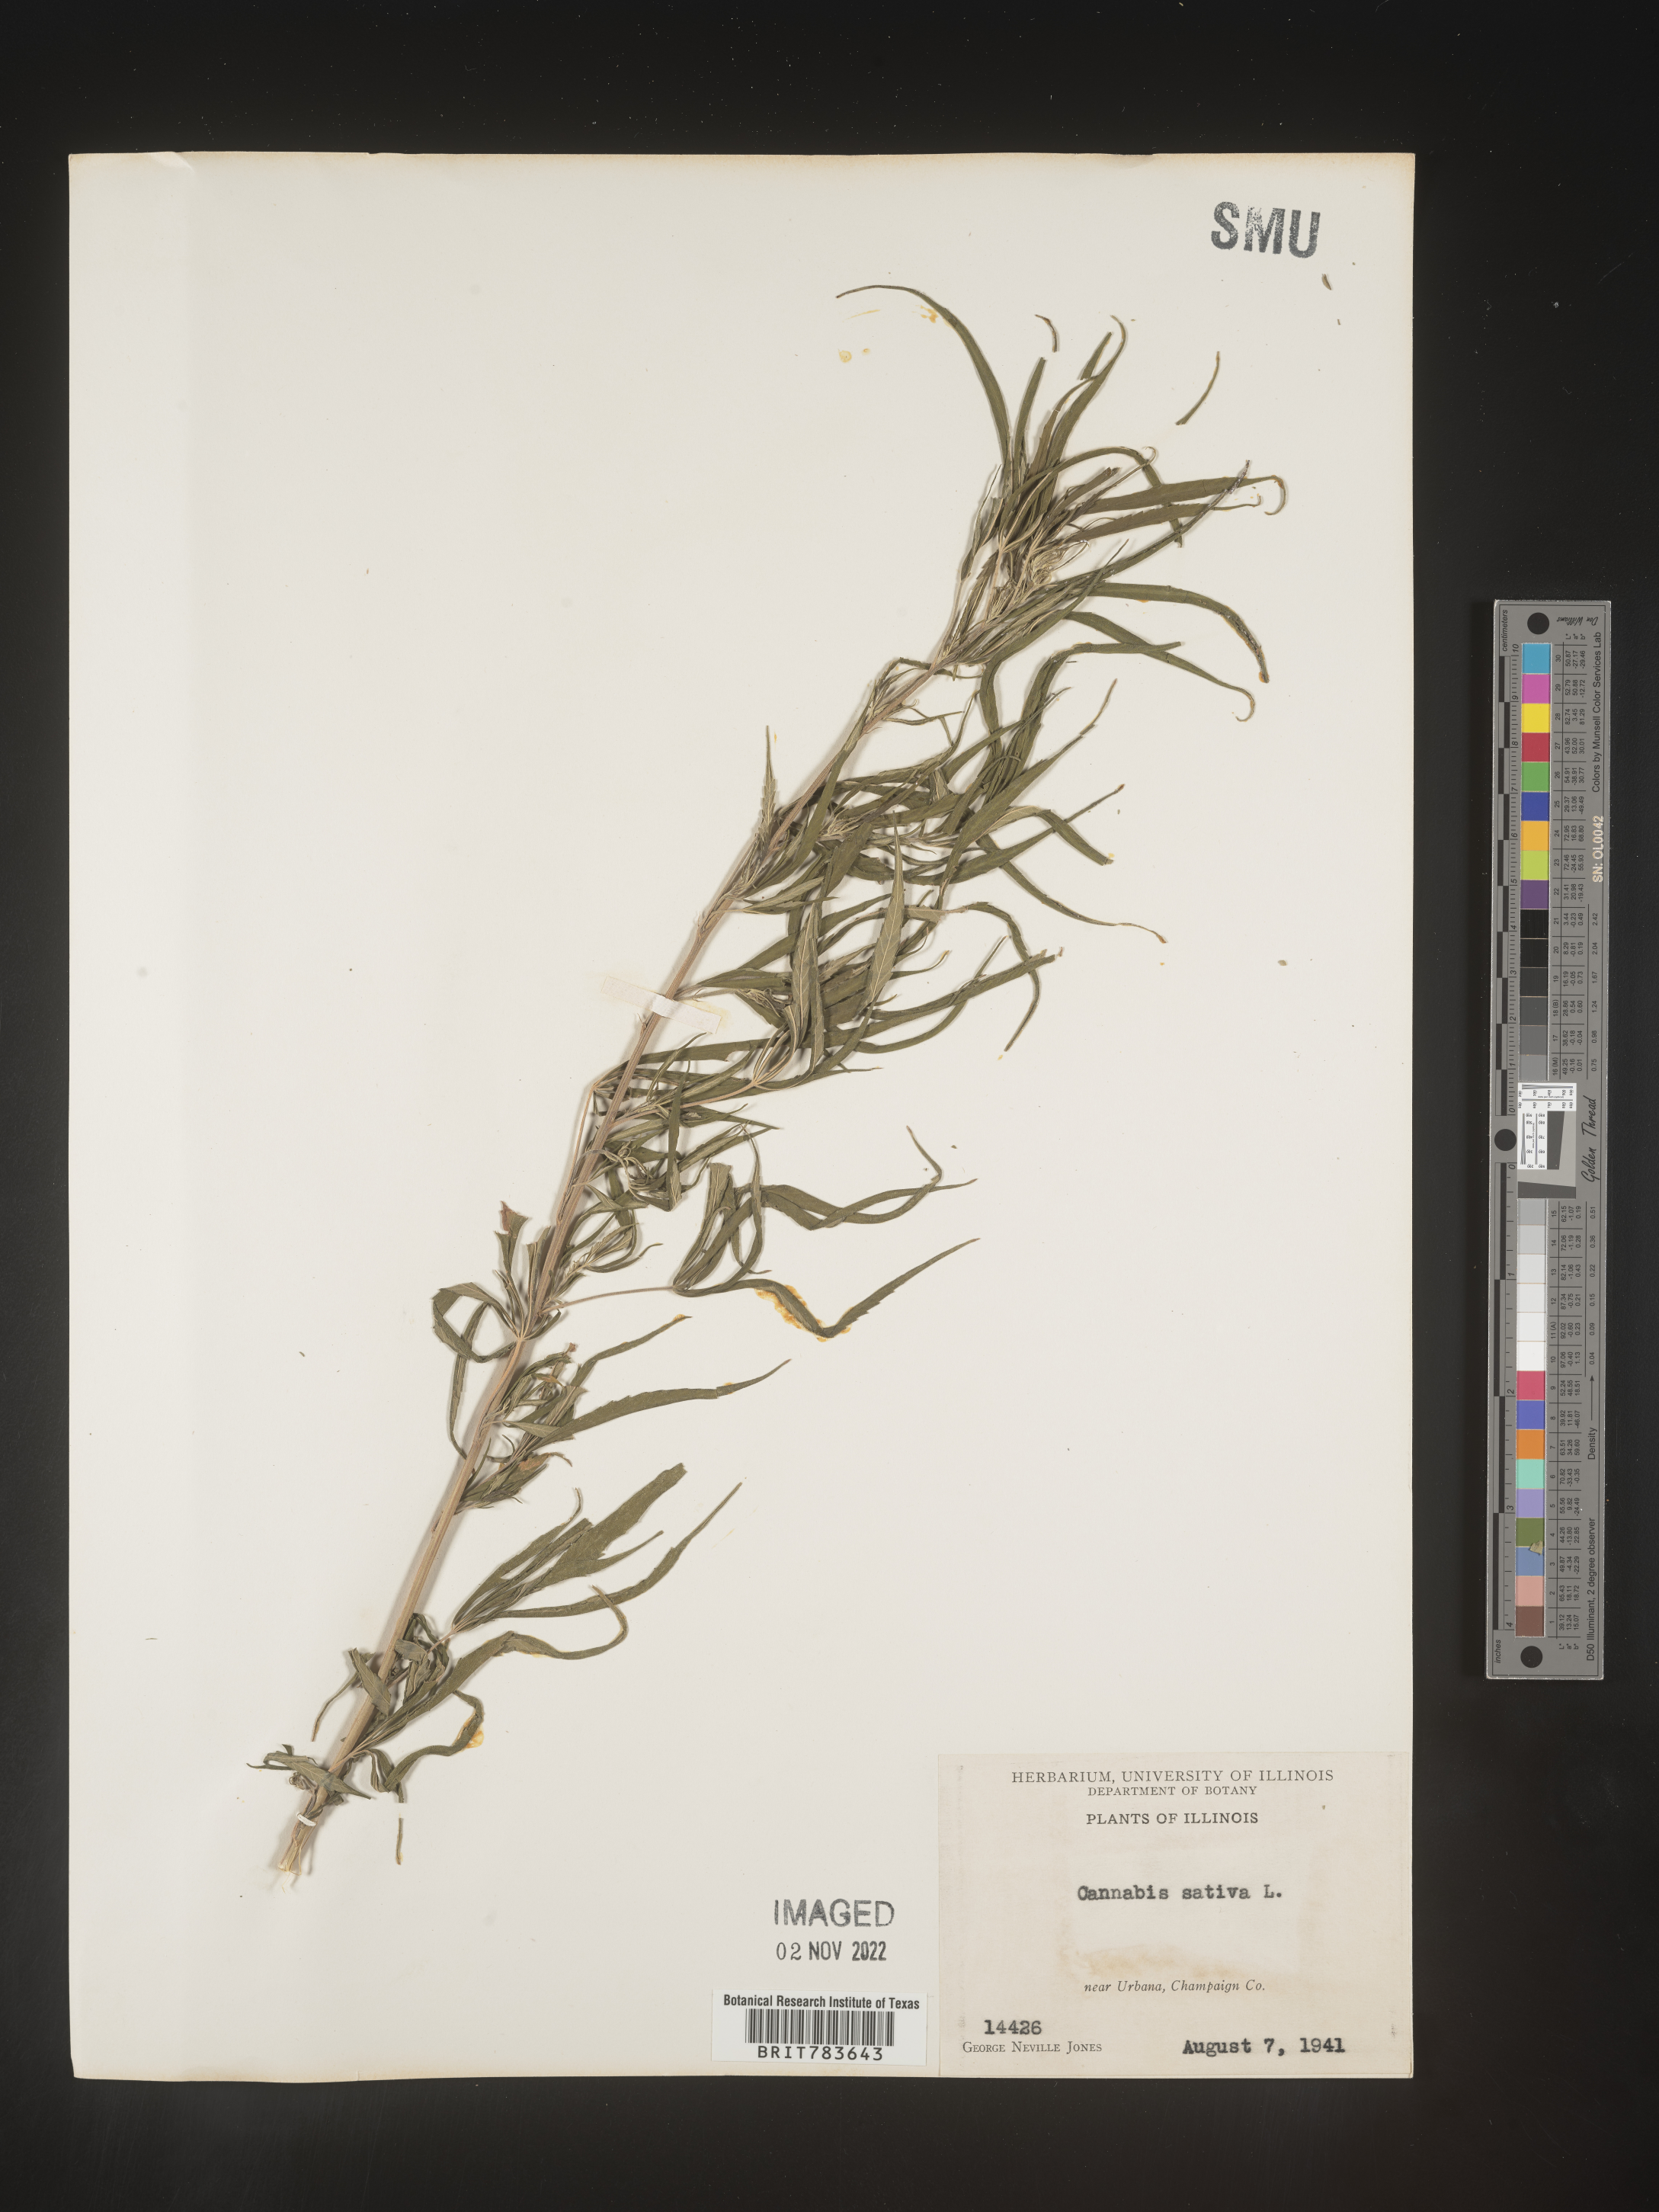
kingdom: Plantae
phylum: Tracheophyta
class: Magnoliopsida
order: Rosales
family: Cannabaceae
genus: Cannabis
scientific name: Cannabis sativa
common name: Hemp
